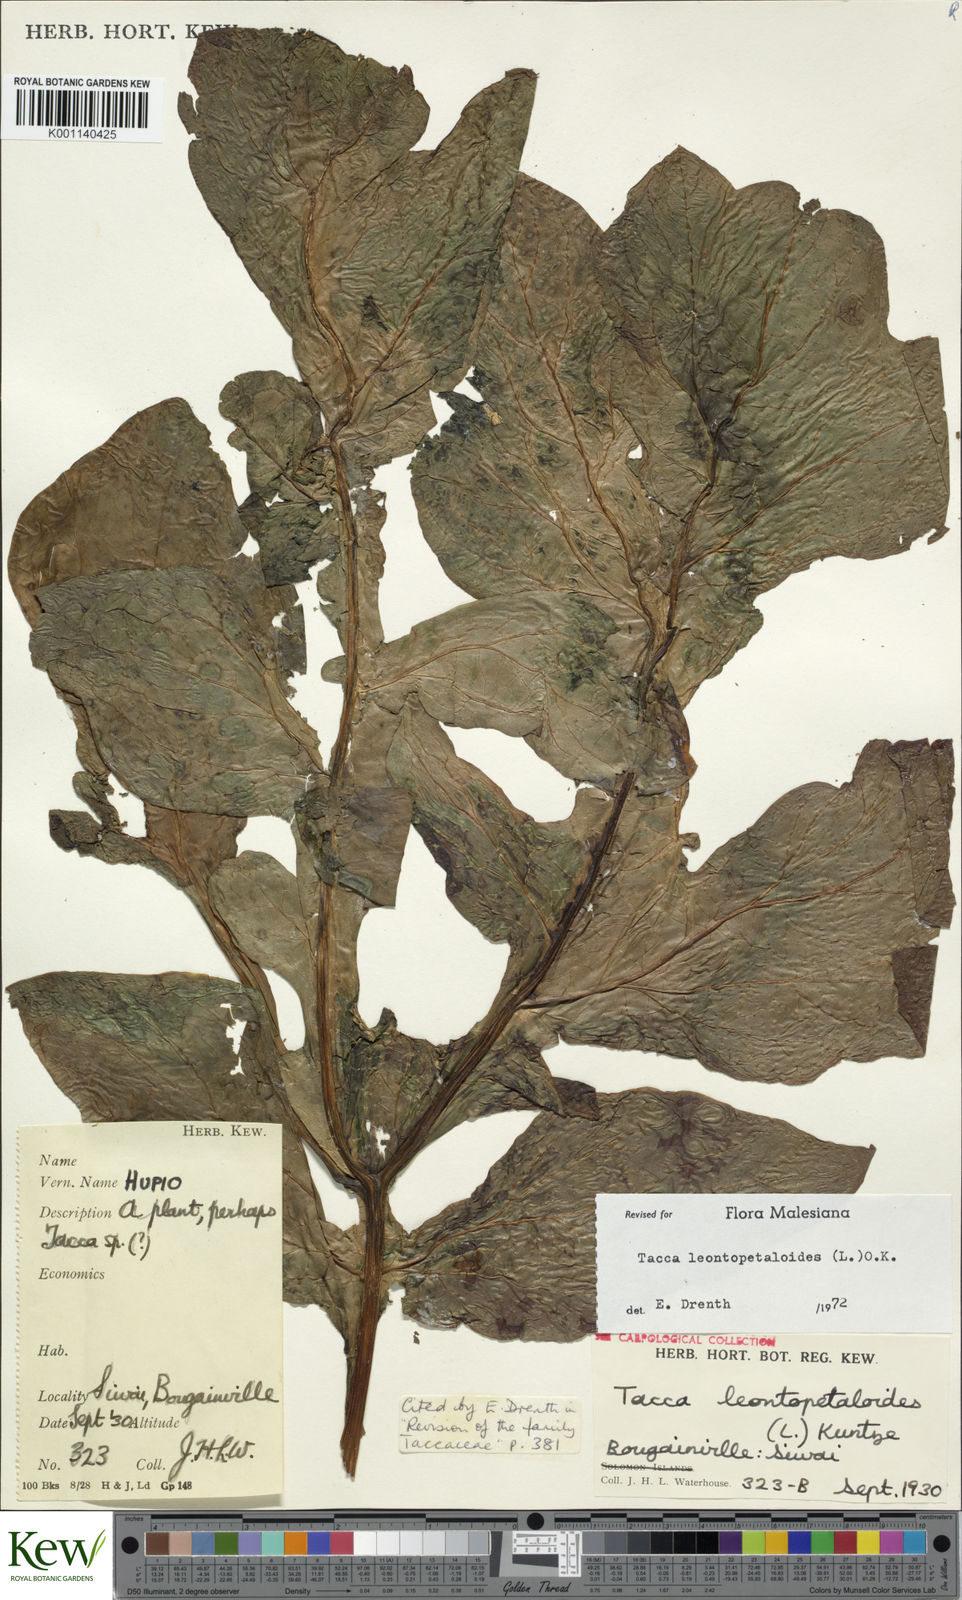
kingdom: Plantae
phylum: Tracheophyta
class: Liliopsida
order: Dioscoreales
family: Dioscoreaceae
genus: Tacca
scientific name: Tacca leontopetaloides
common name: Arrowroot
